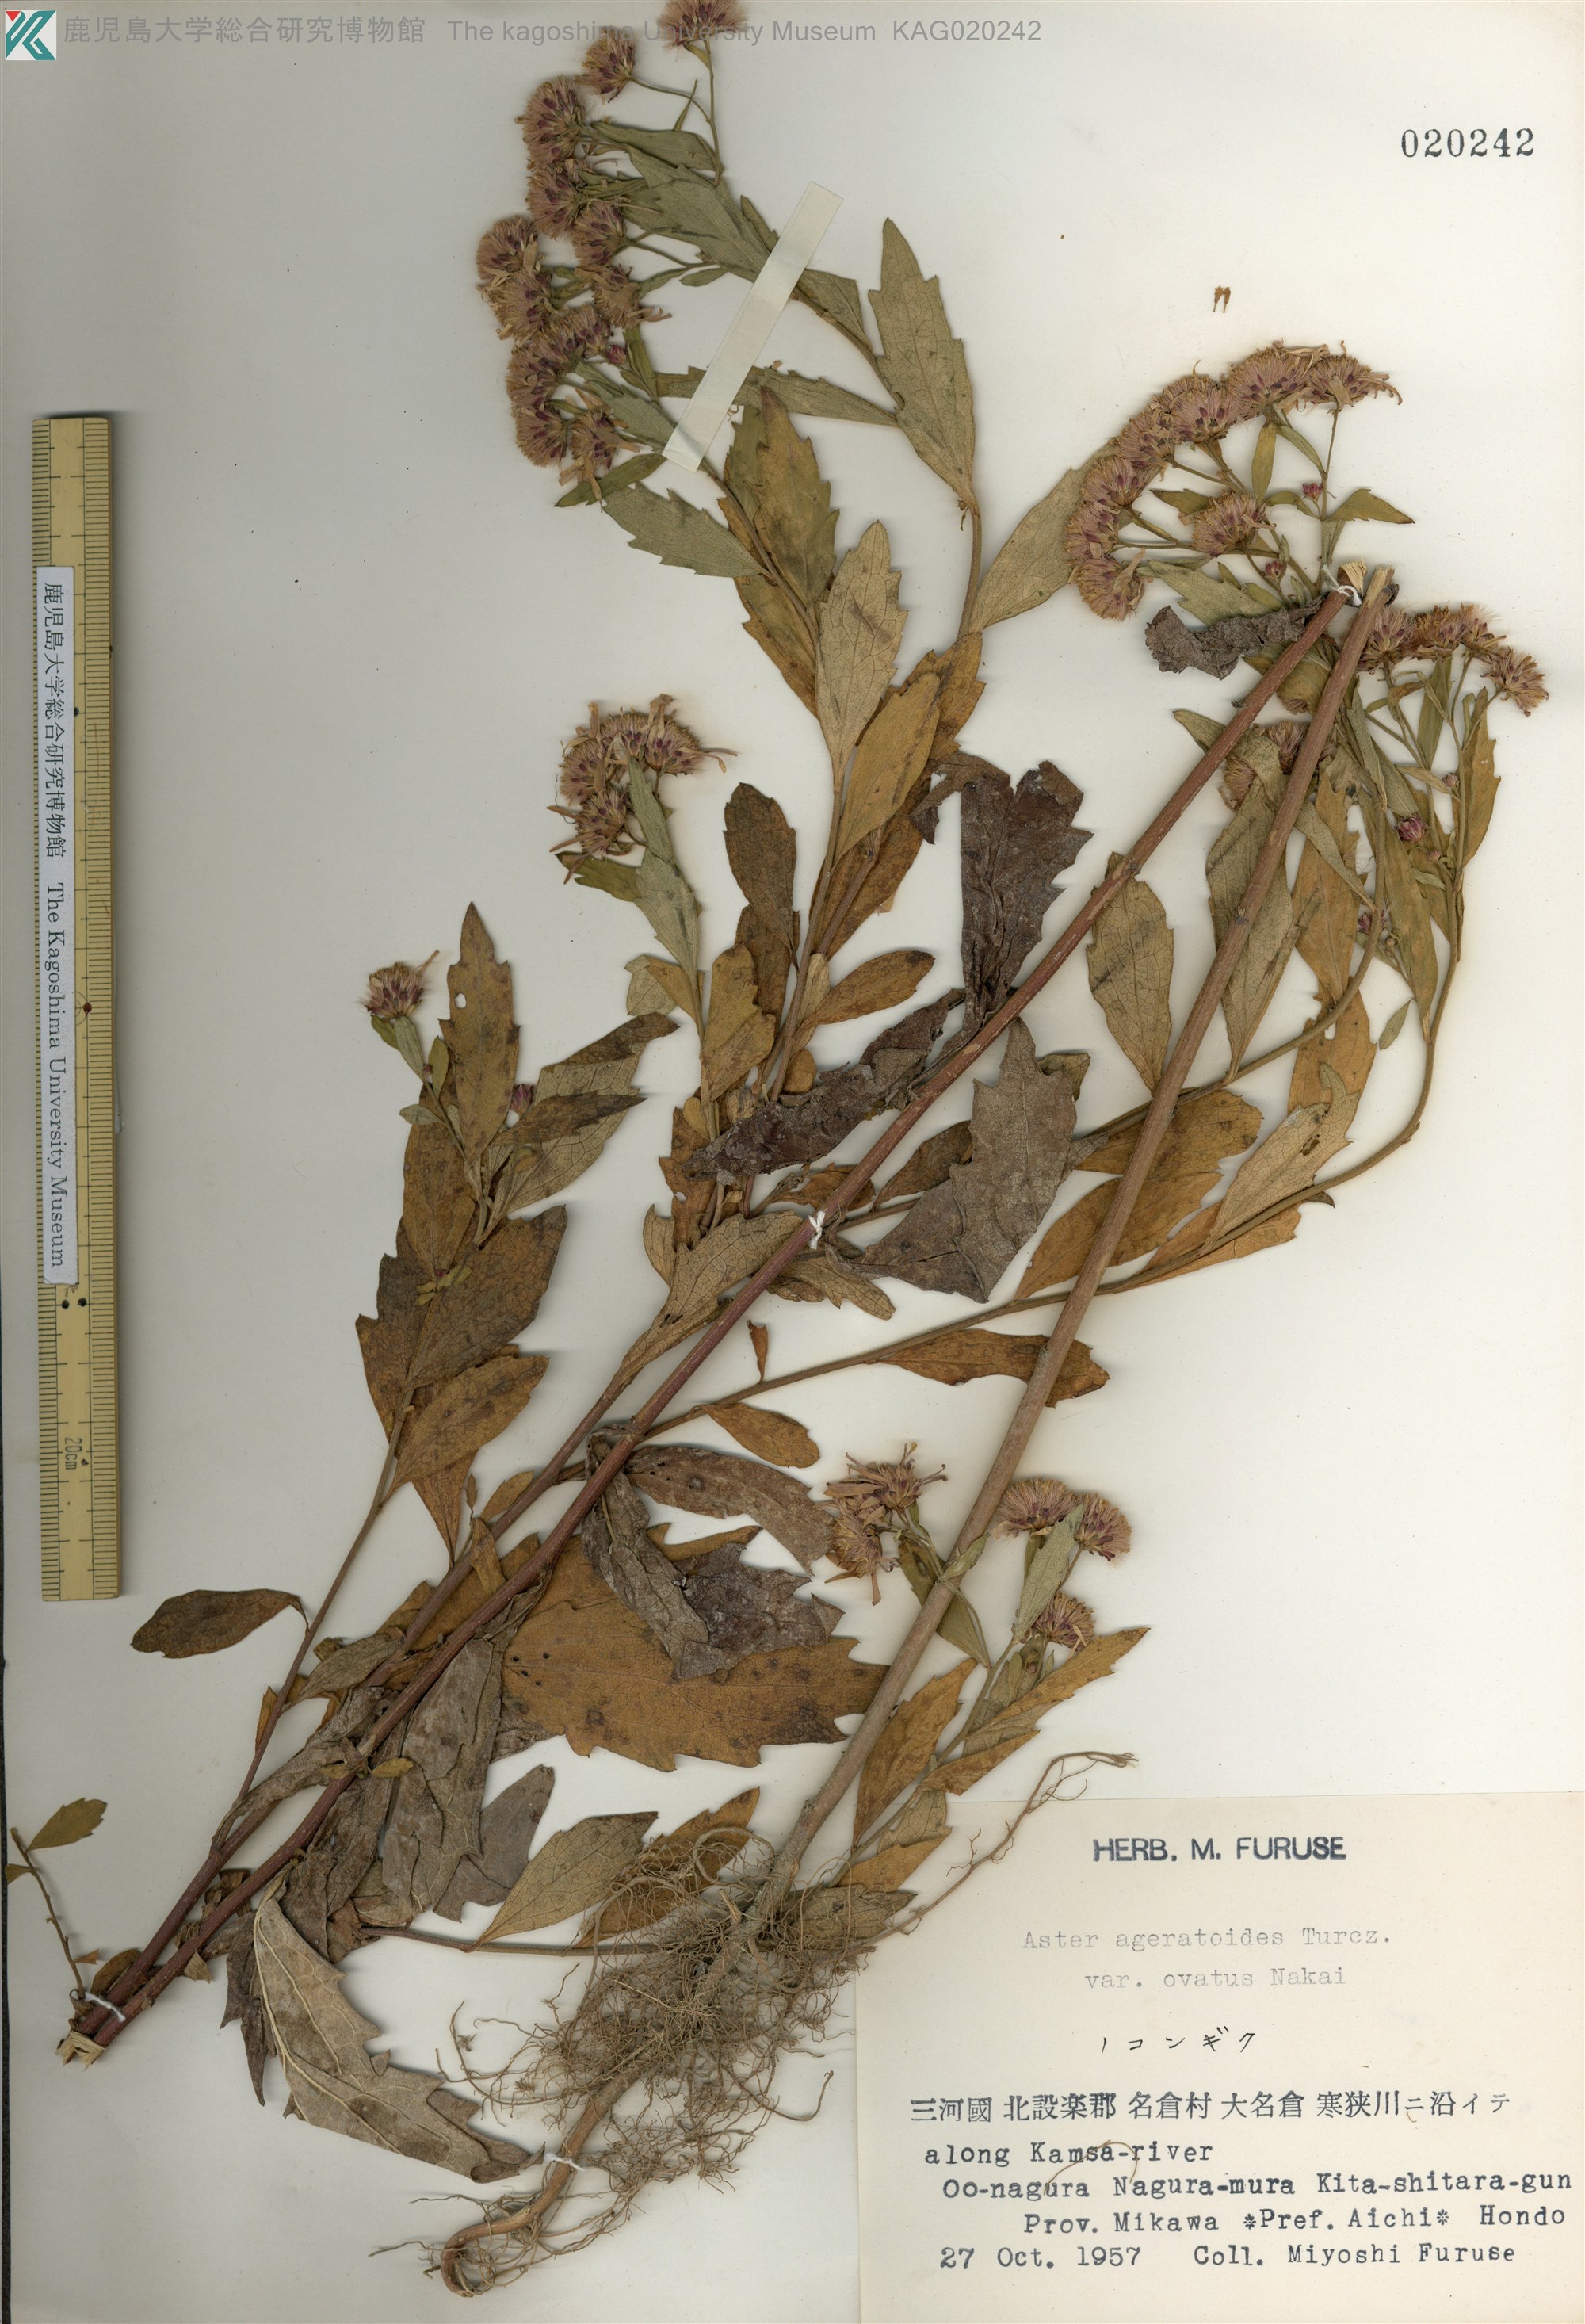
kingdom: Plantae
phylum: Tracheophyta
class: Magnoliopsida
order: Asterales
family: Asteraceae
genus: Aster
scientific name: Aster microcephalus
